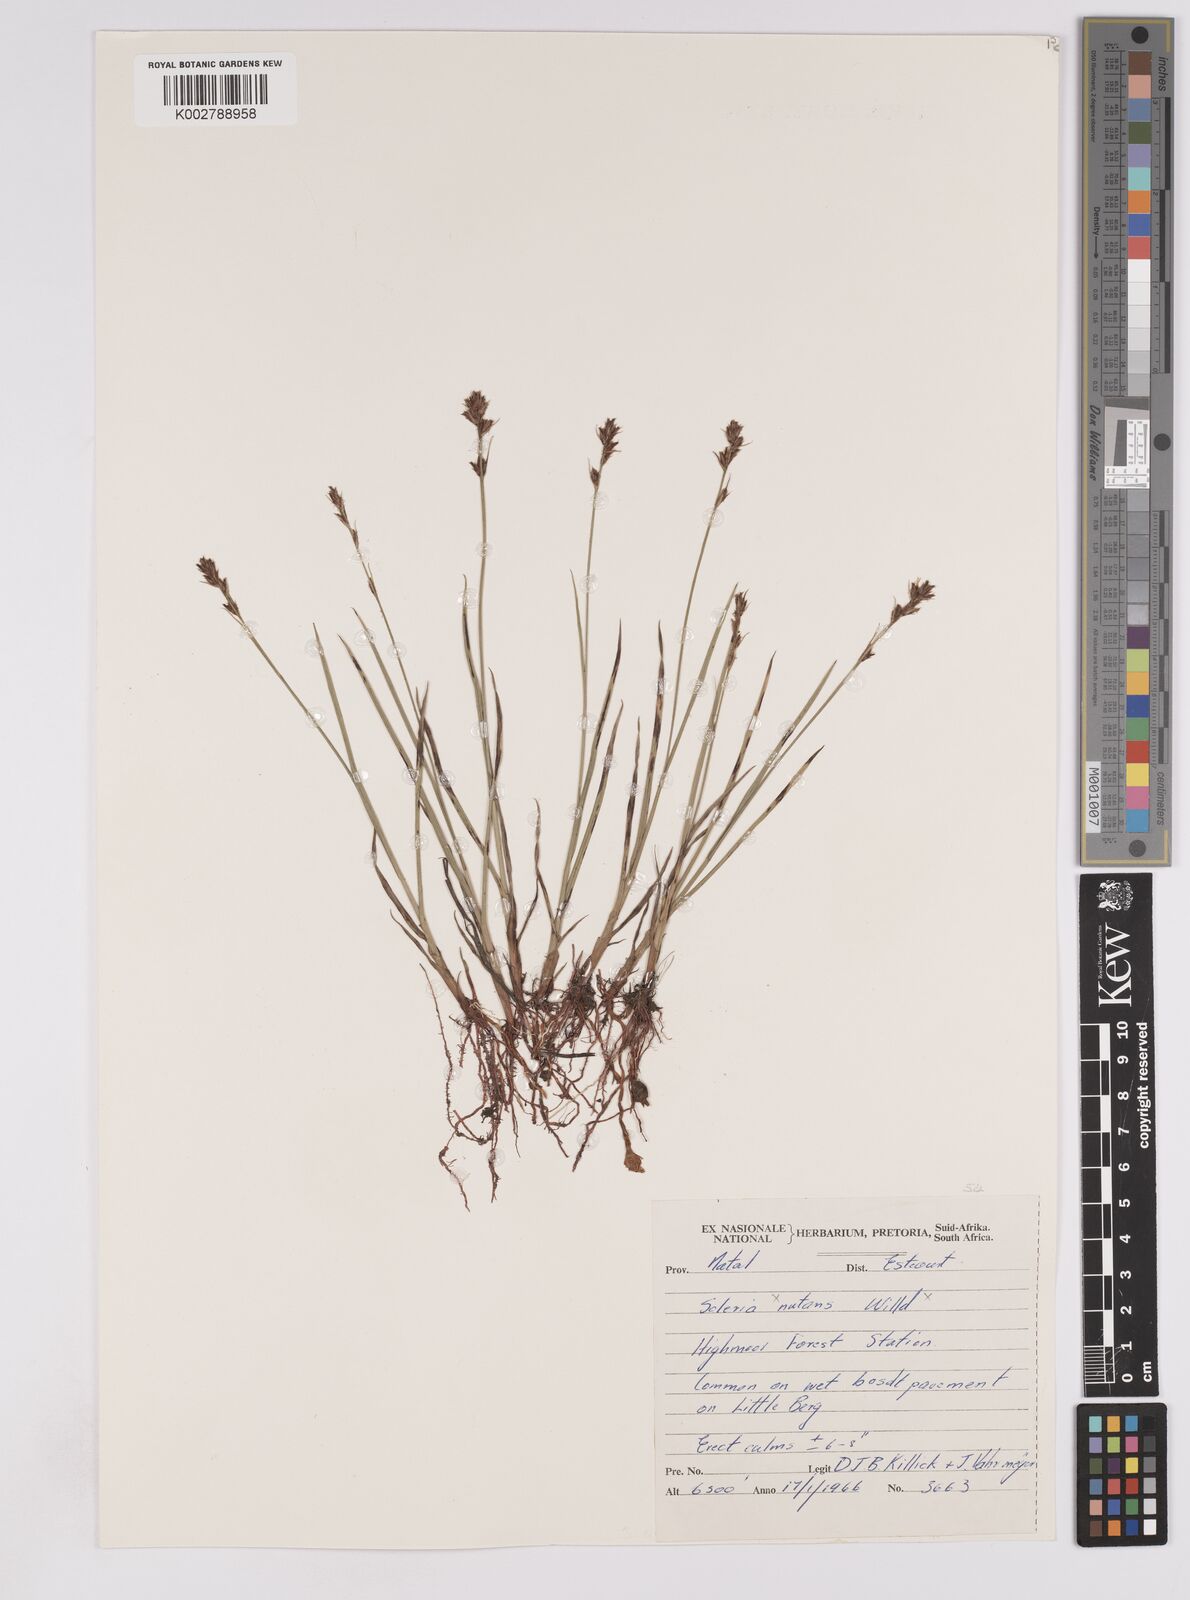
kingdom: Plantae
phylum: Tracheophyta
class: Liliopsida
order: Poales
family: Cyperaceae
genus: Scleria
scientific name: Scleria
